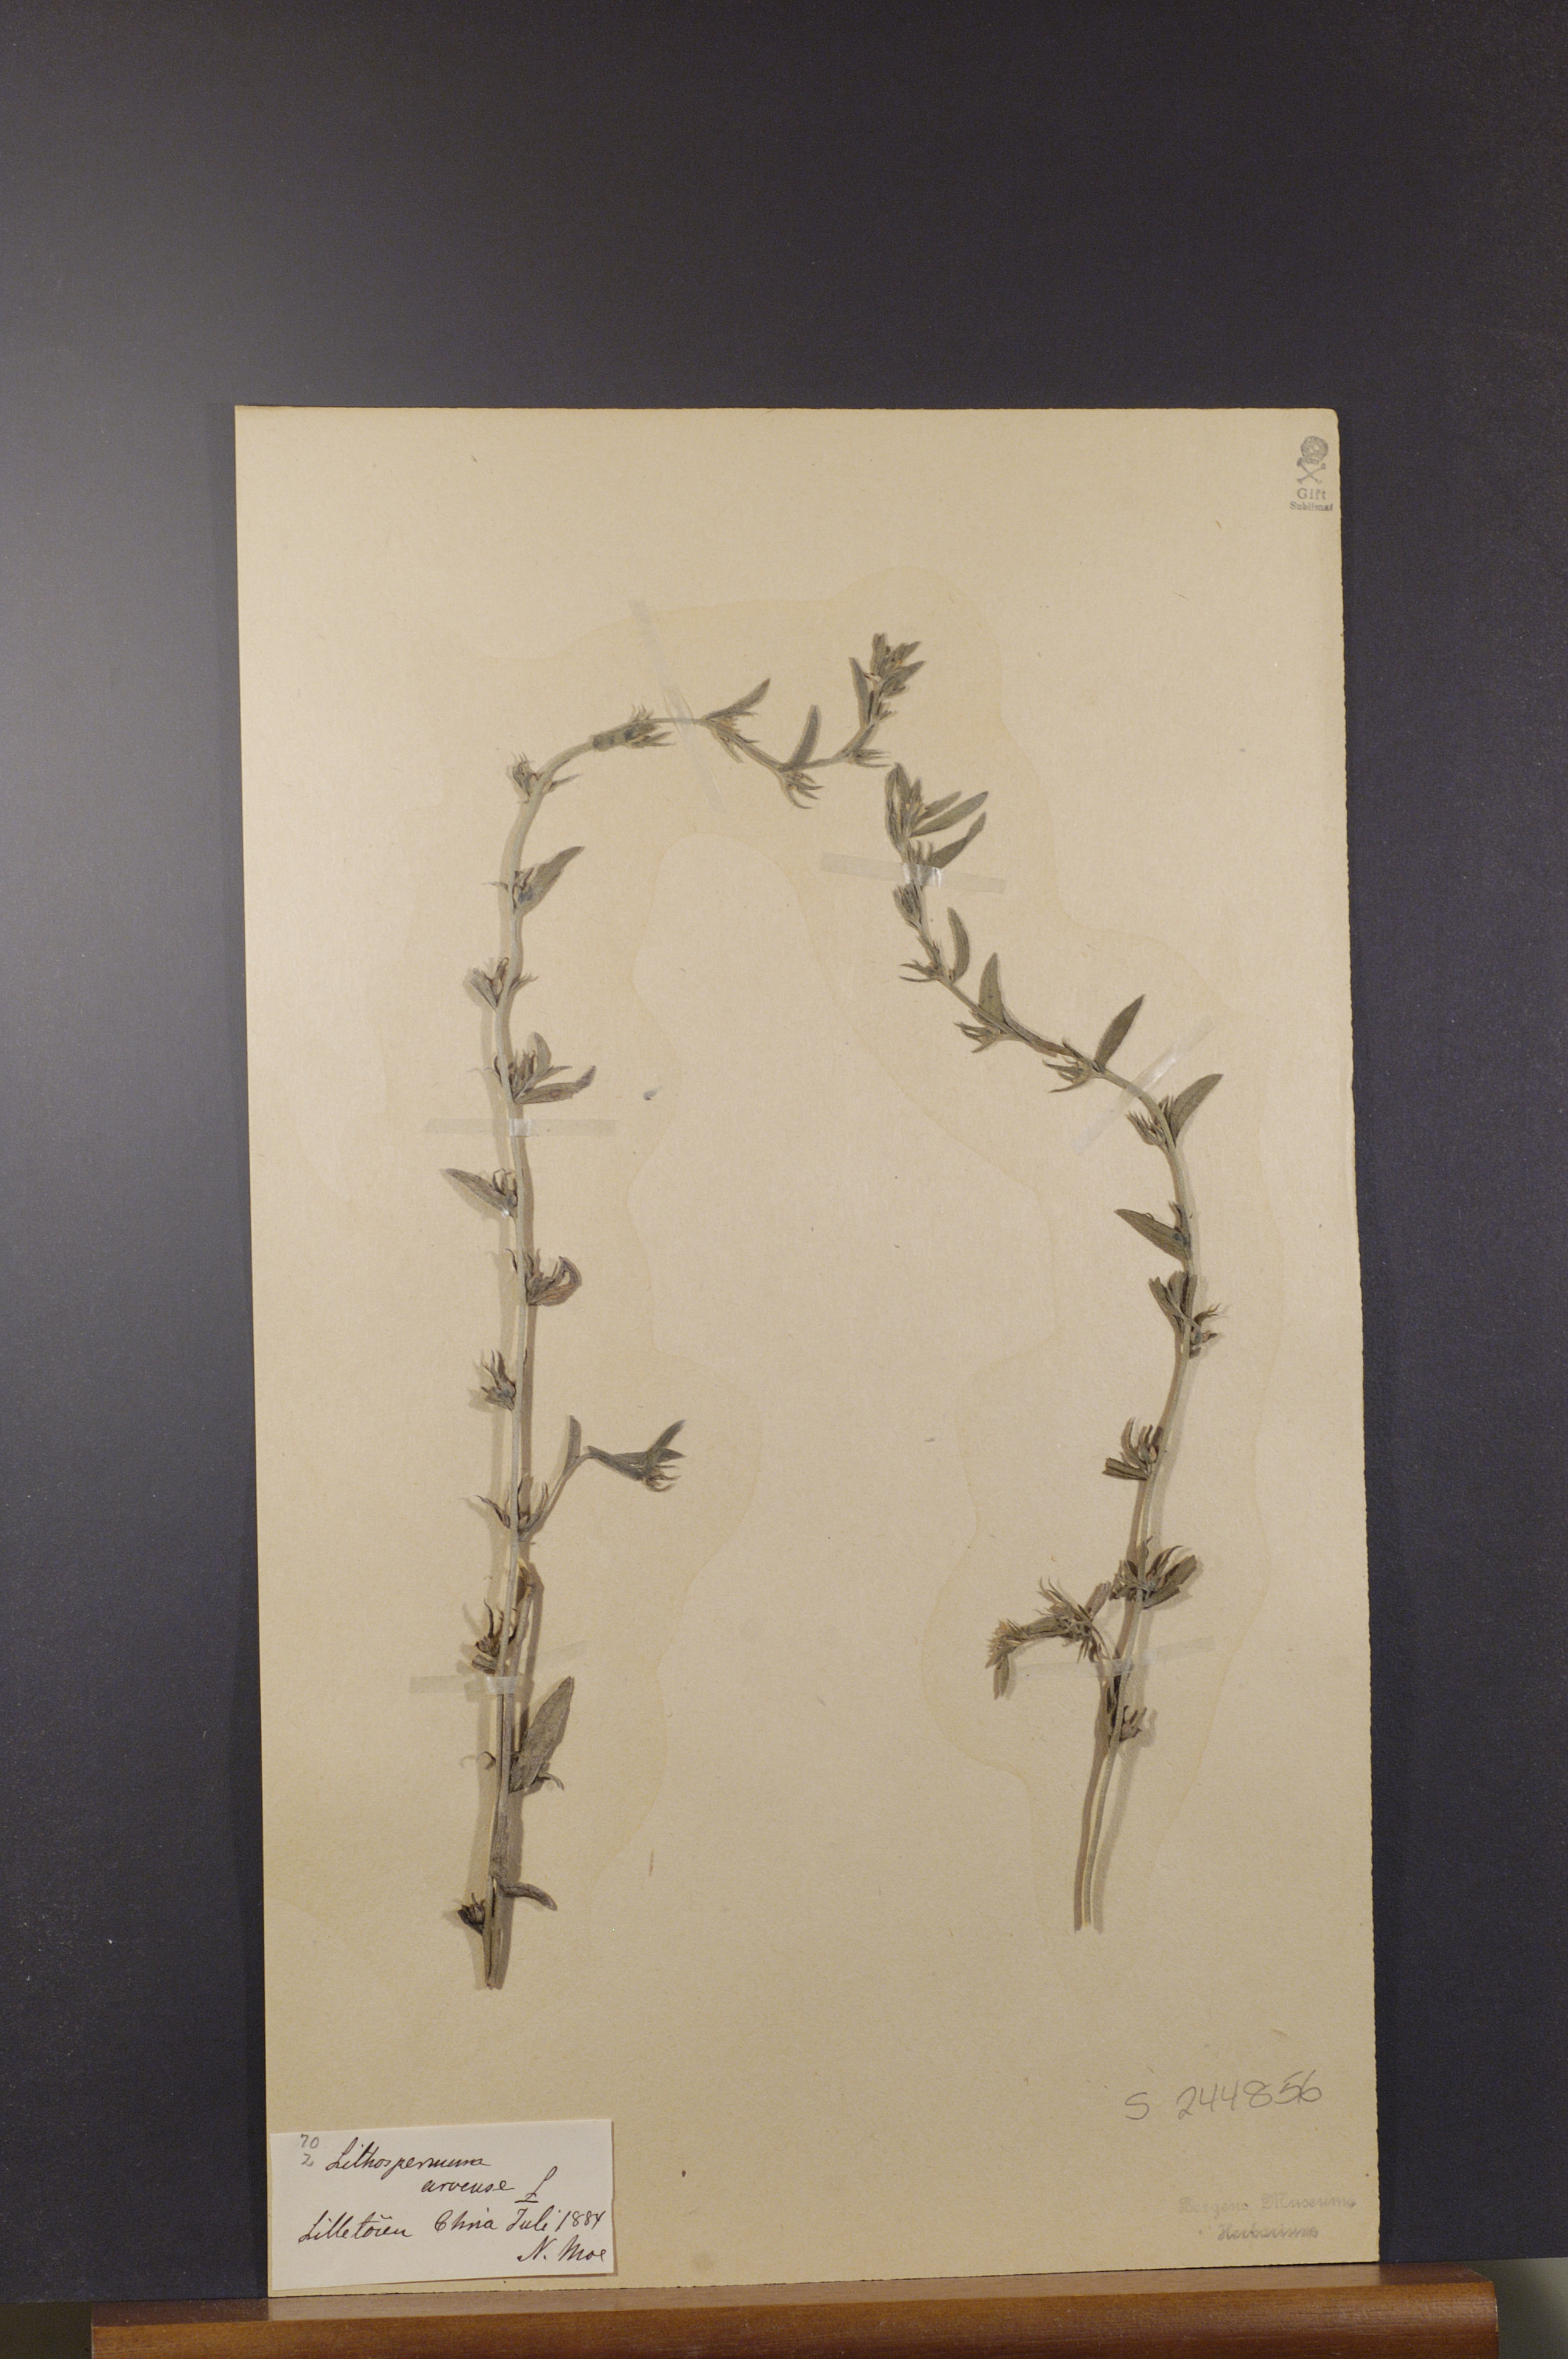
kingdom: Plantae
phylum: Tracheophyta
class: Magnoliopsida
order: Boraginales
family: Boraginaceae
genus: Buglossoides
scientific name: Buglossoides arvensis
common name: Corn gromwell
